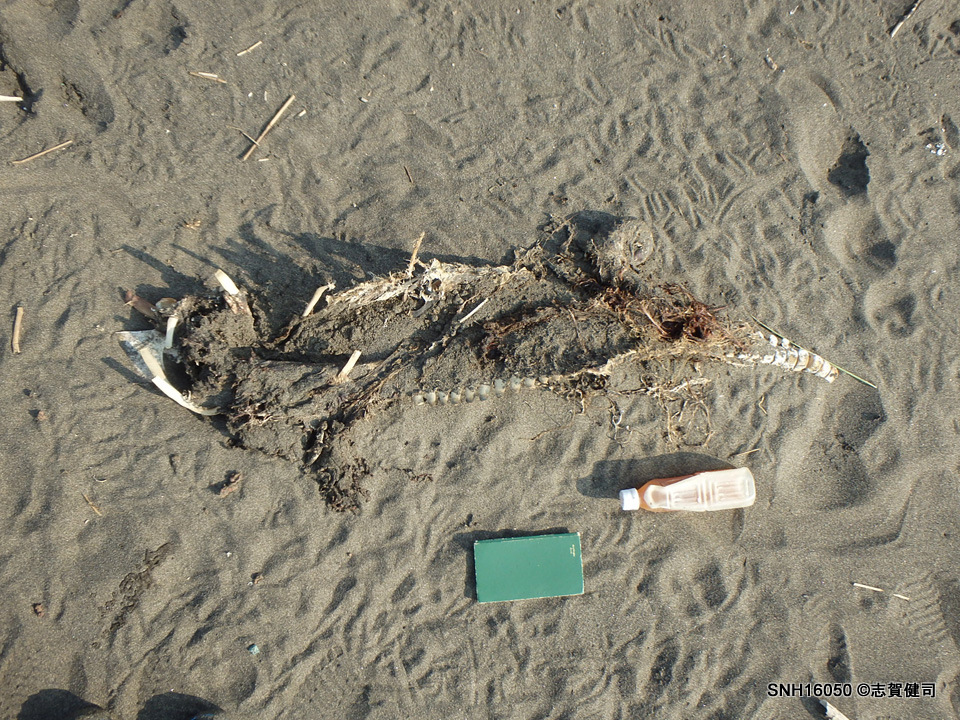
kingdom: Animalia
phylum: Chordata
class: Mammalia
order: Cetacea
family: Phocoenidae
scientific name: Phocoenidae
